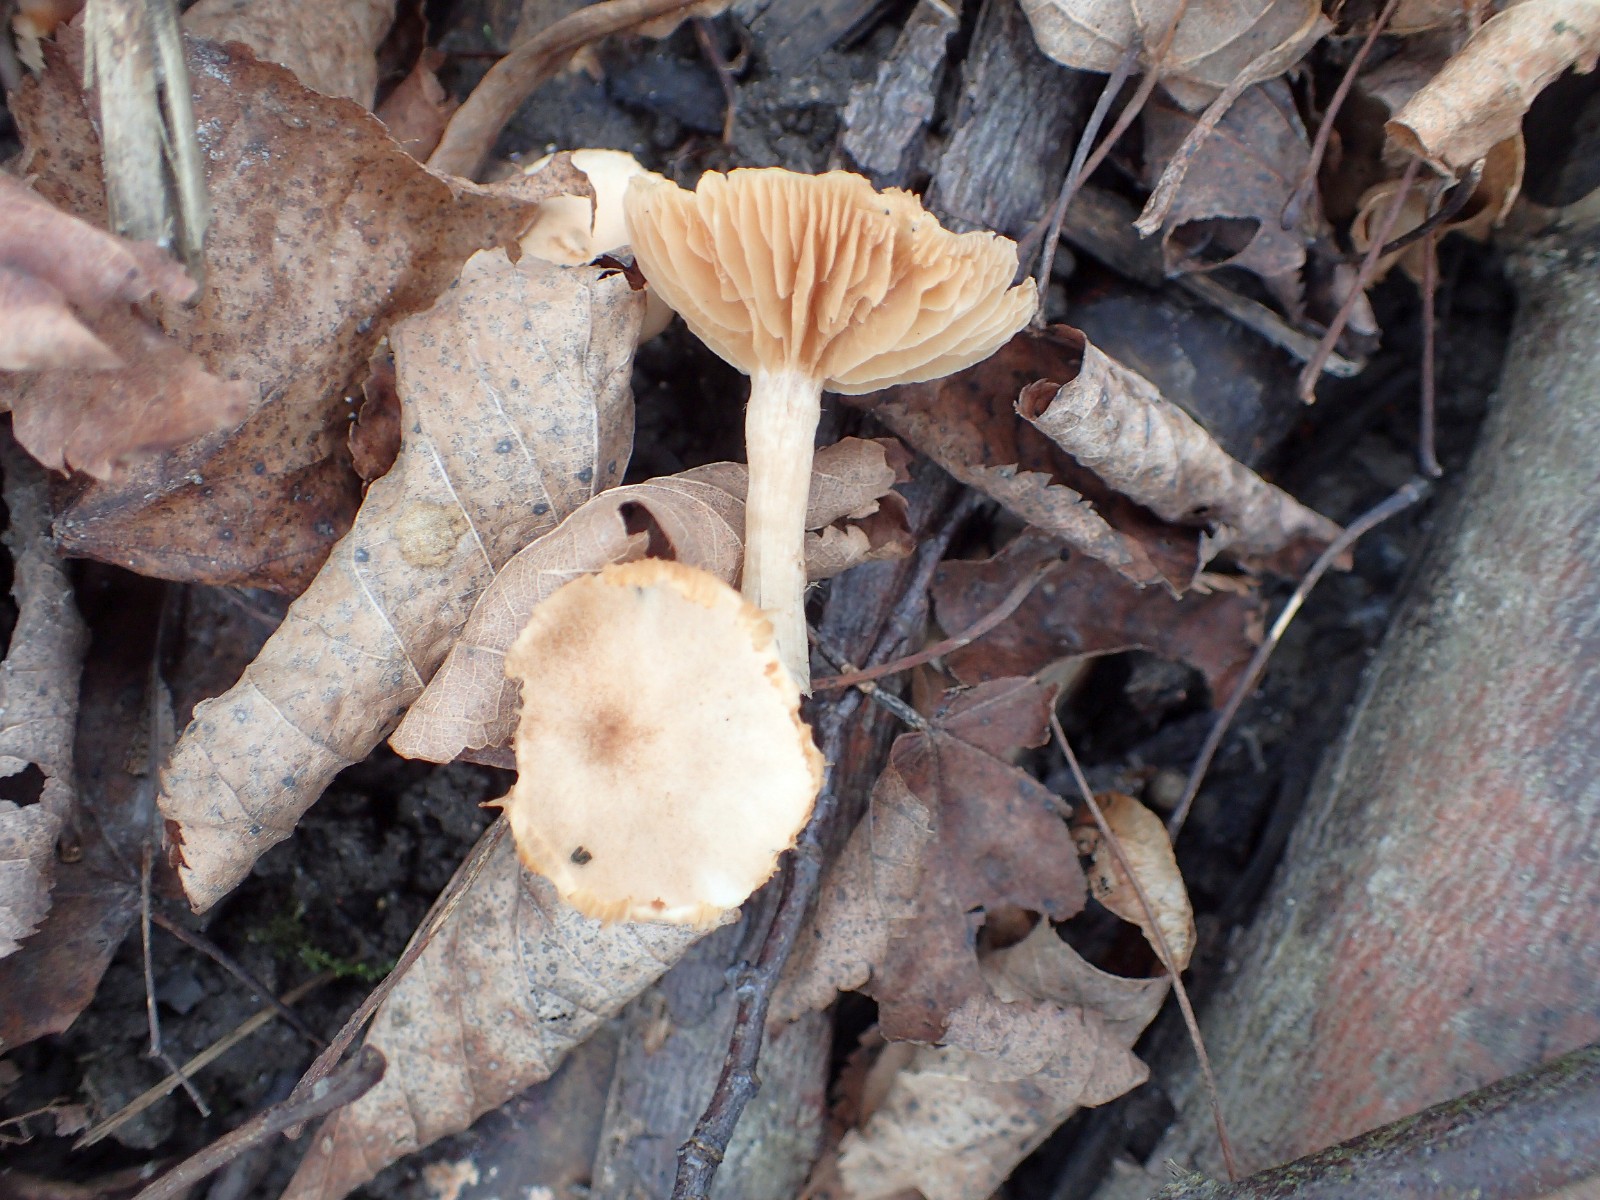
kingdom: Fungi
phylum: Basidiomycota
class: Agaricomycetes
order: Agaricales
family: Tubariaceae
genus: Tubaria
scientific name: Tubaria furfuracea
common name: kliddet fnughat
